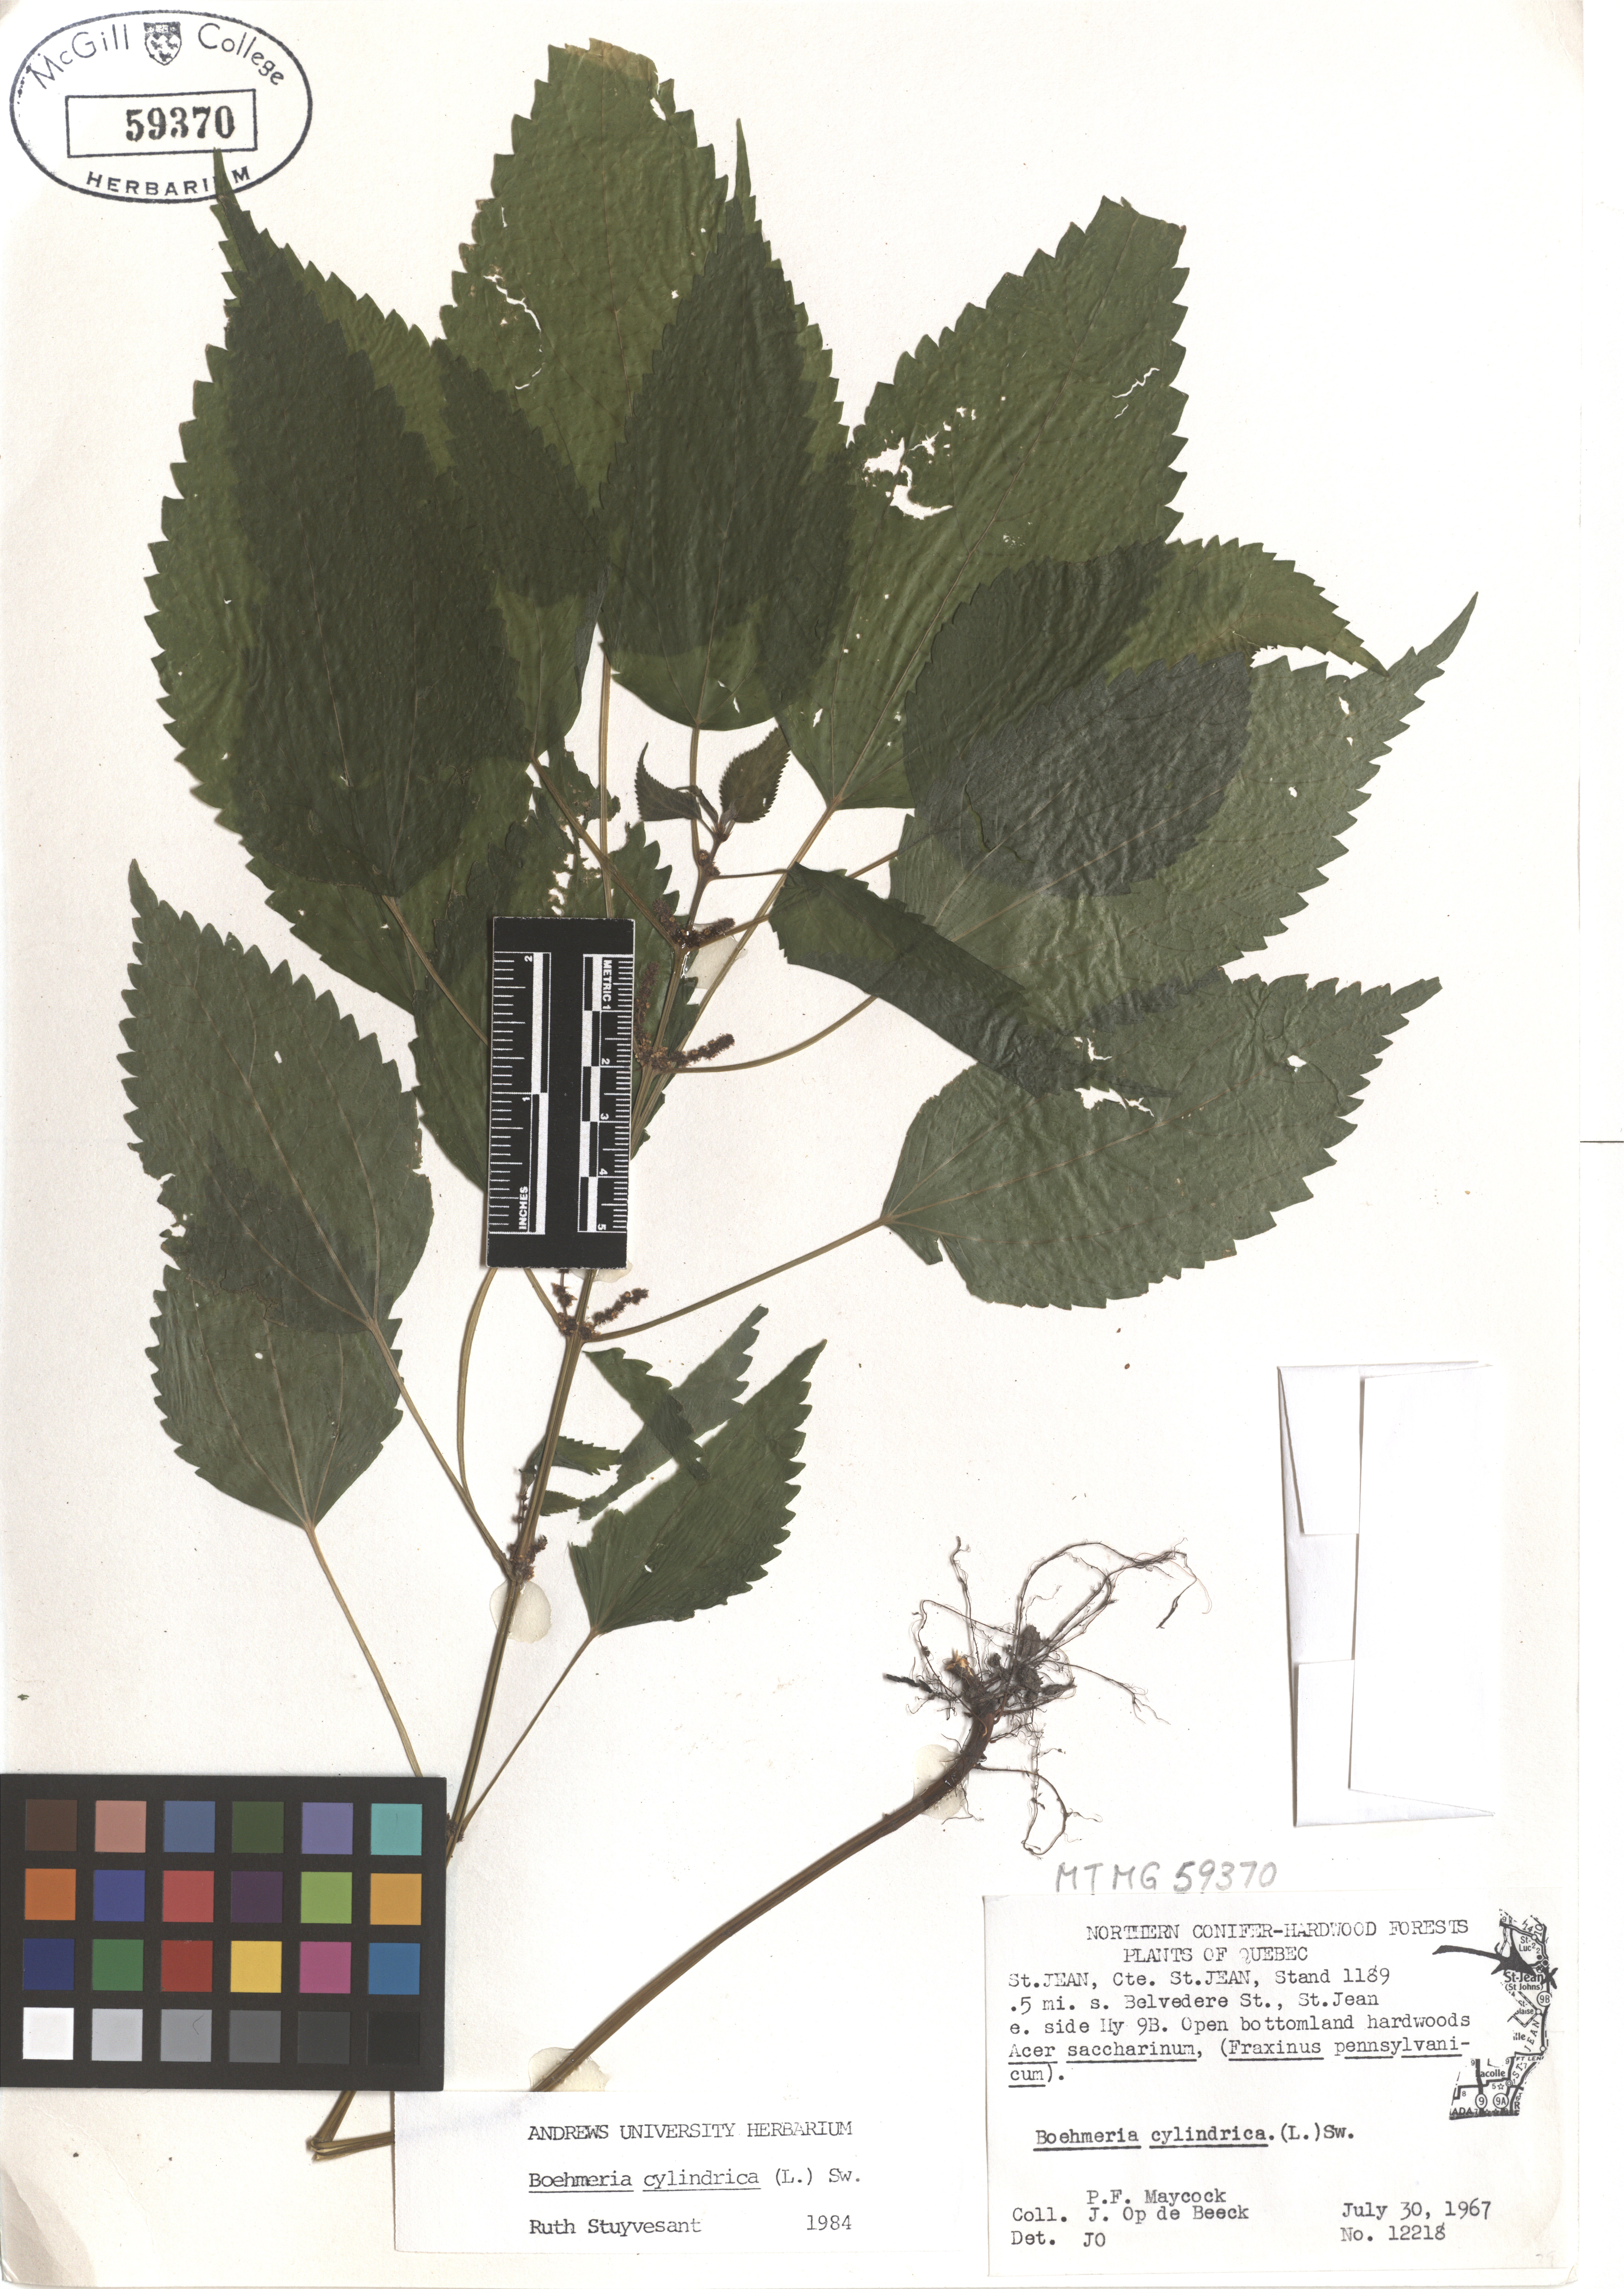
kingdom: Plantae
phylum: Tracheophyta
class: Magnoliopsida
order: Rosales
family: Urticaceae
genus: Boehmeria
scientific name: Boehmeria cylindrica
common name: Bog-hemp
